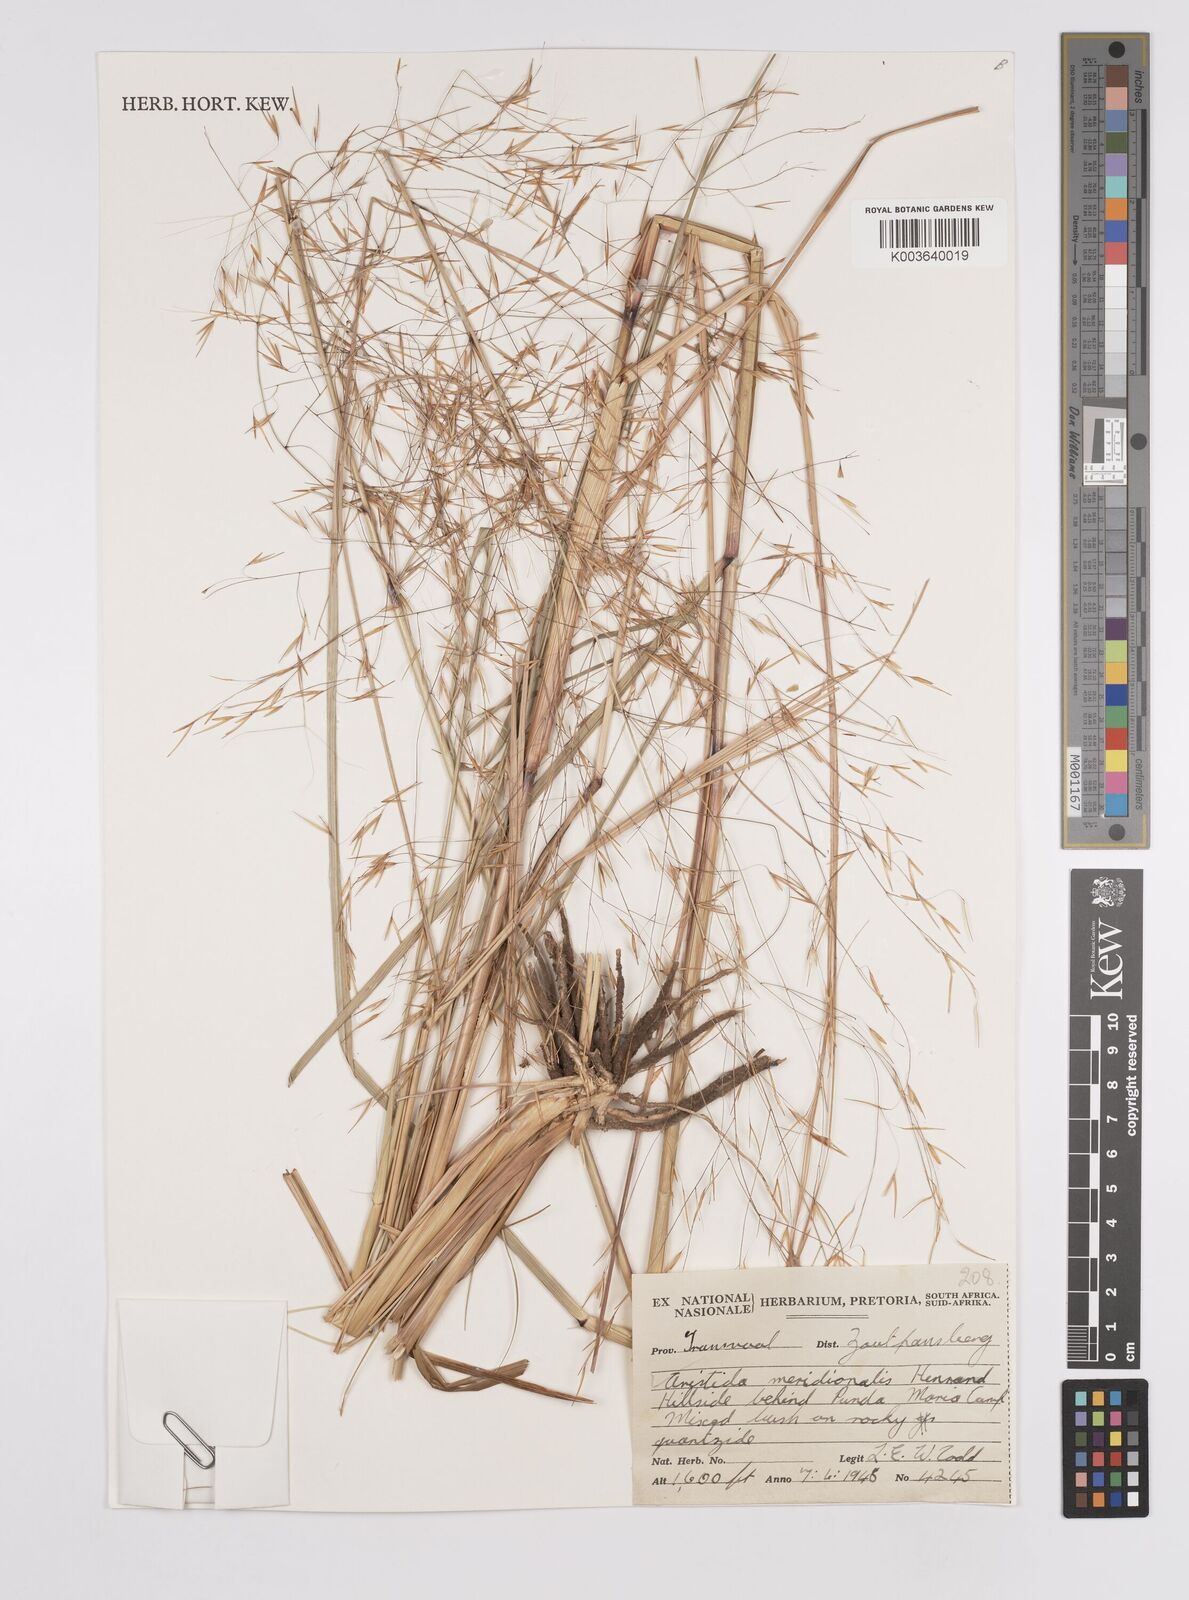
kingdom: Plantae
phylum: Tracheophyta
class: Liliopsida
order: Poales
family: Poaceae
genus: Aristida
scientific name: Aristida meridionalis
